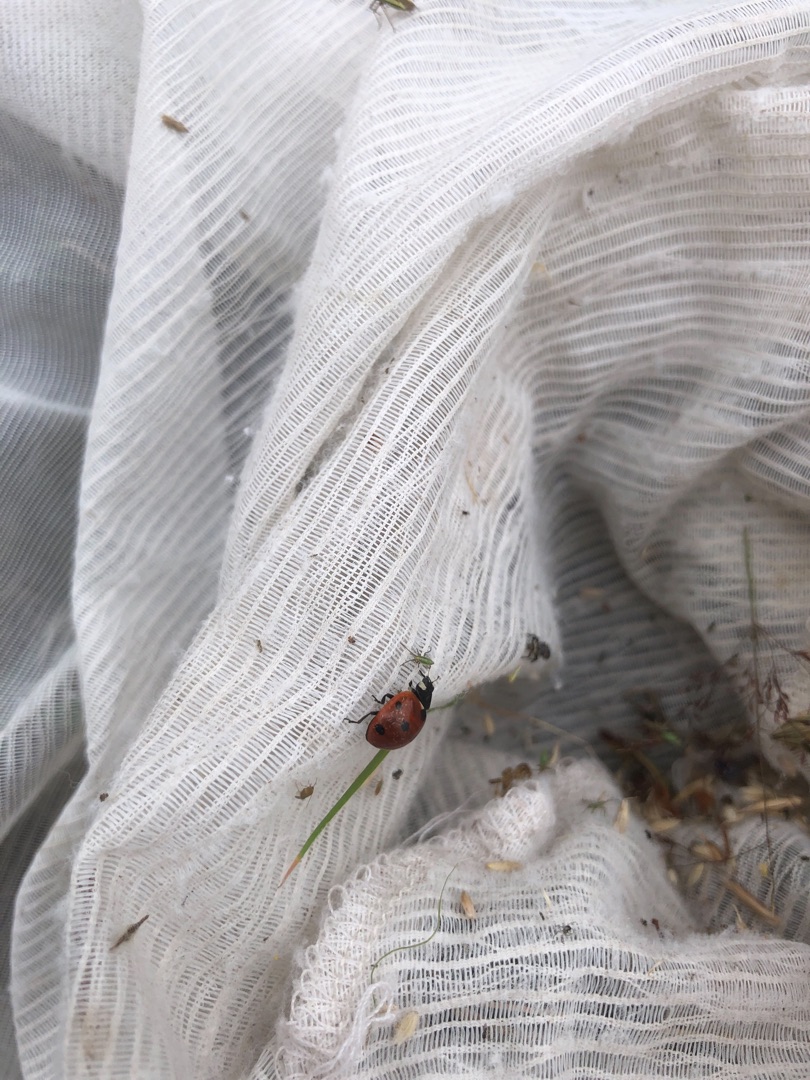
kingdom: Animalia
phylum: Arthropoda
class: Insecta
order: Coleoptera
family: Coccinellidae
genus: Coccinella
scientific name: Coccinella septempunctata
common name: Syvplettet mariehøne
